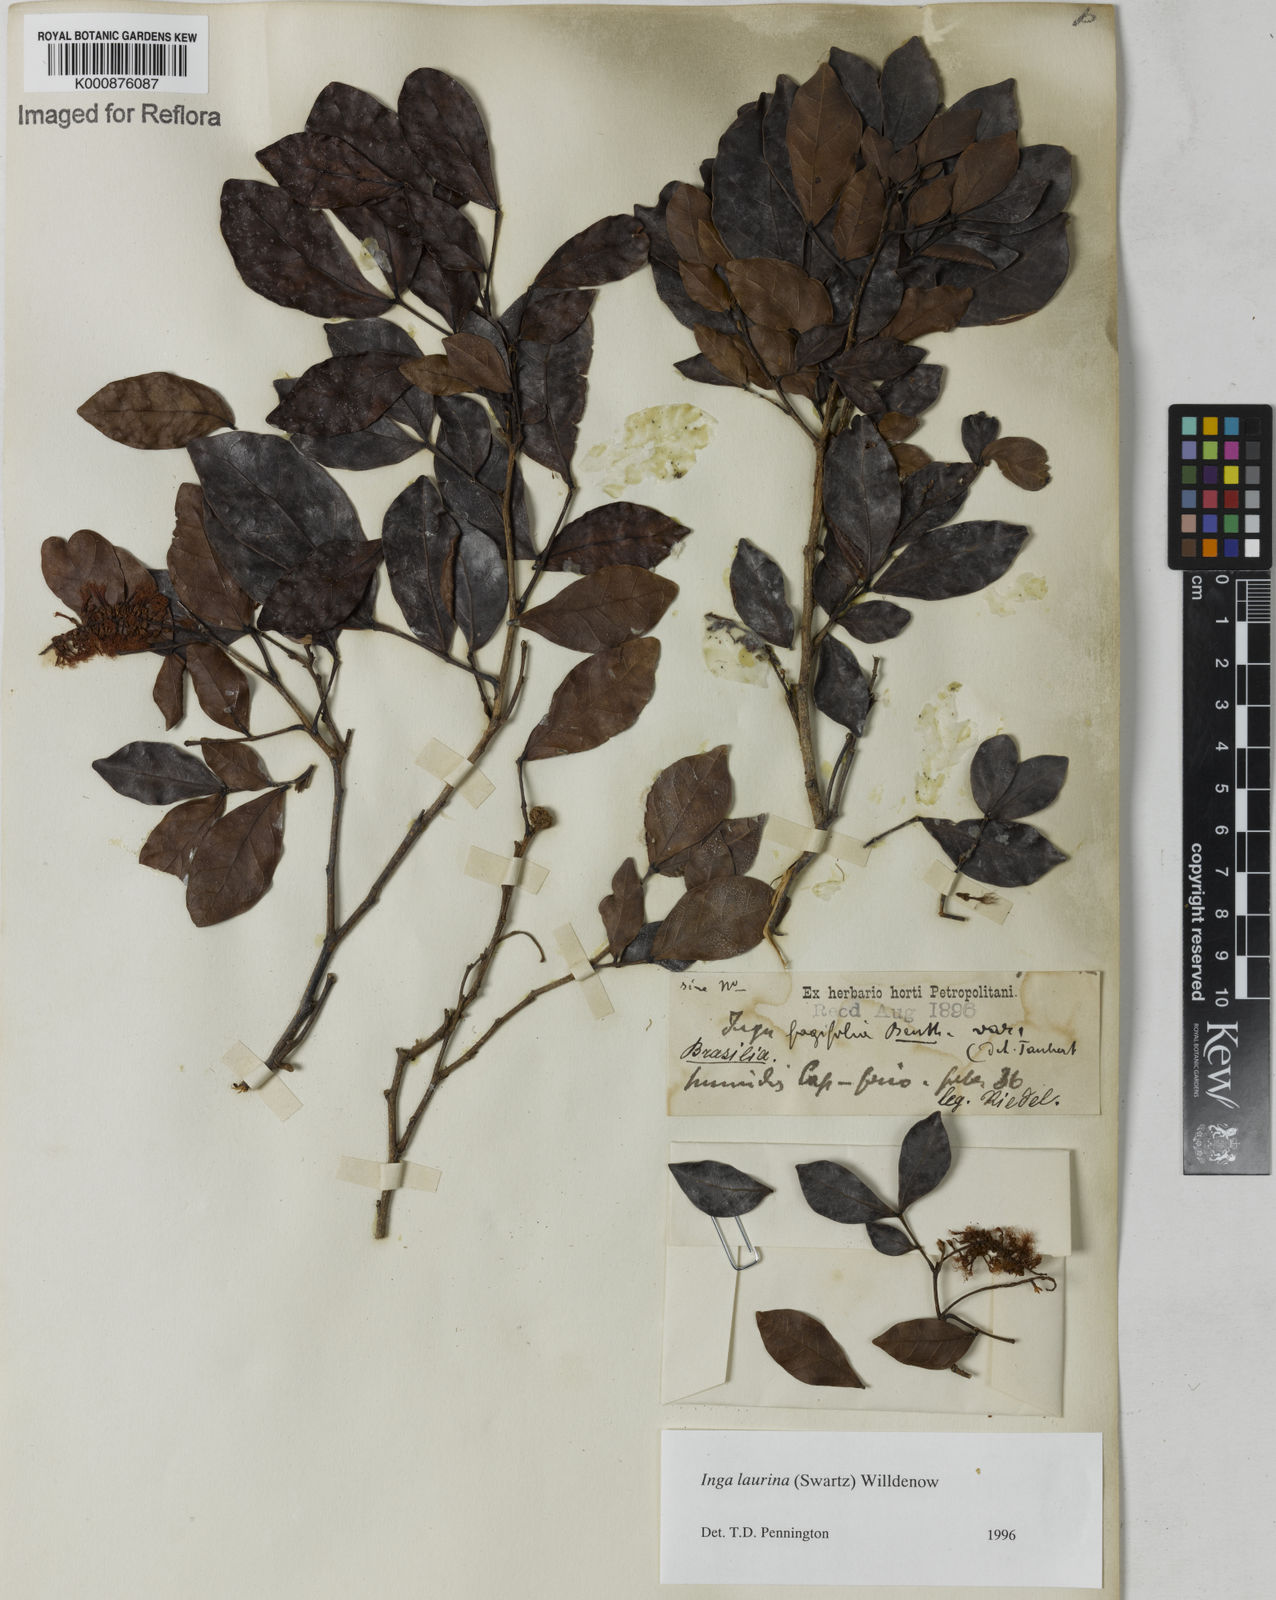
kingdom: Plantae
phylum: Tracheophyta
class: Magnoliopsida
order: Fabales
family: Fabaceae
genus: Inga
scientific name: Inga laurina
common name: Red wood
